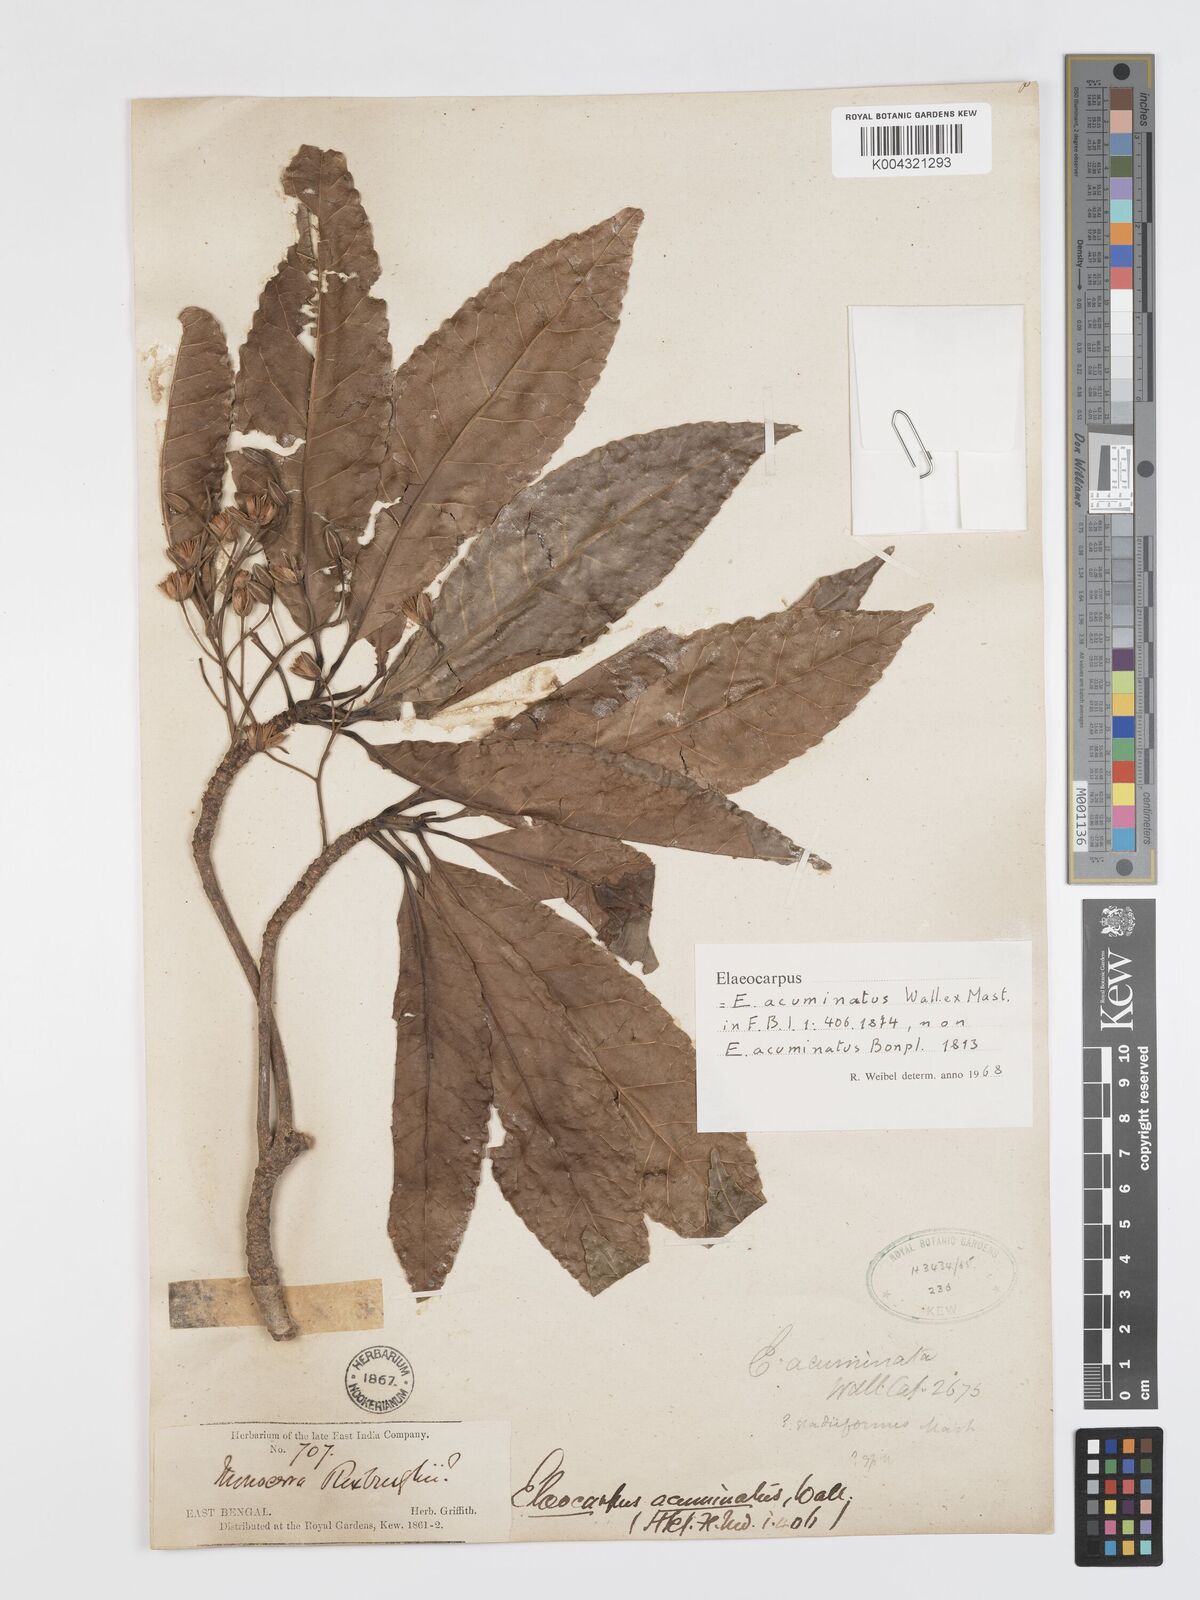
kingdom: Plantae
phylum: Tracheophyta
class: Magnoliopsida
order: Oxalidales
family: Elaeocarpaceae
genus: Elaeocarpus
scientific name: Elaeocarpus
